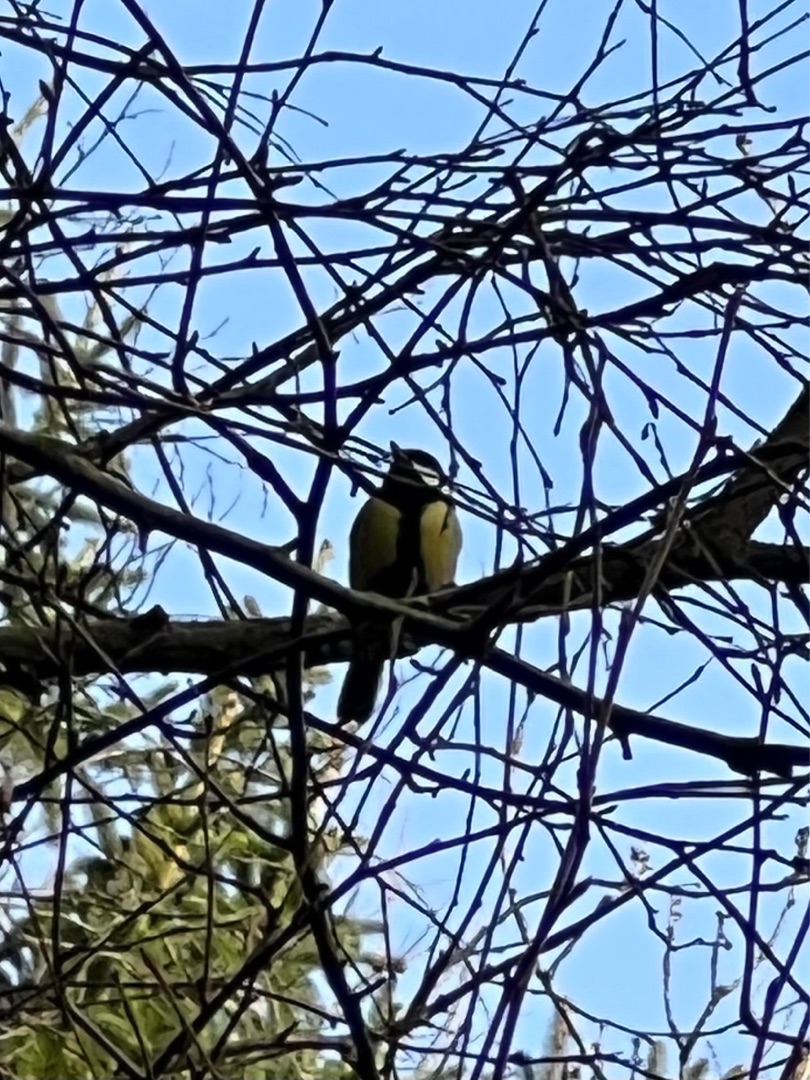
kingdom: Animalia
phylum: Chordata
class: Aves
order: Passeriformes
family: Paridae
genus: Parus
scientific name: Parus major
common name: Musvit
